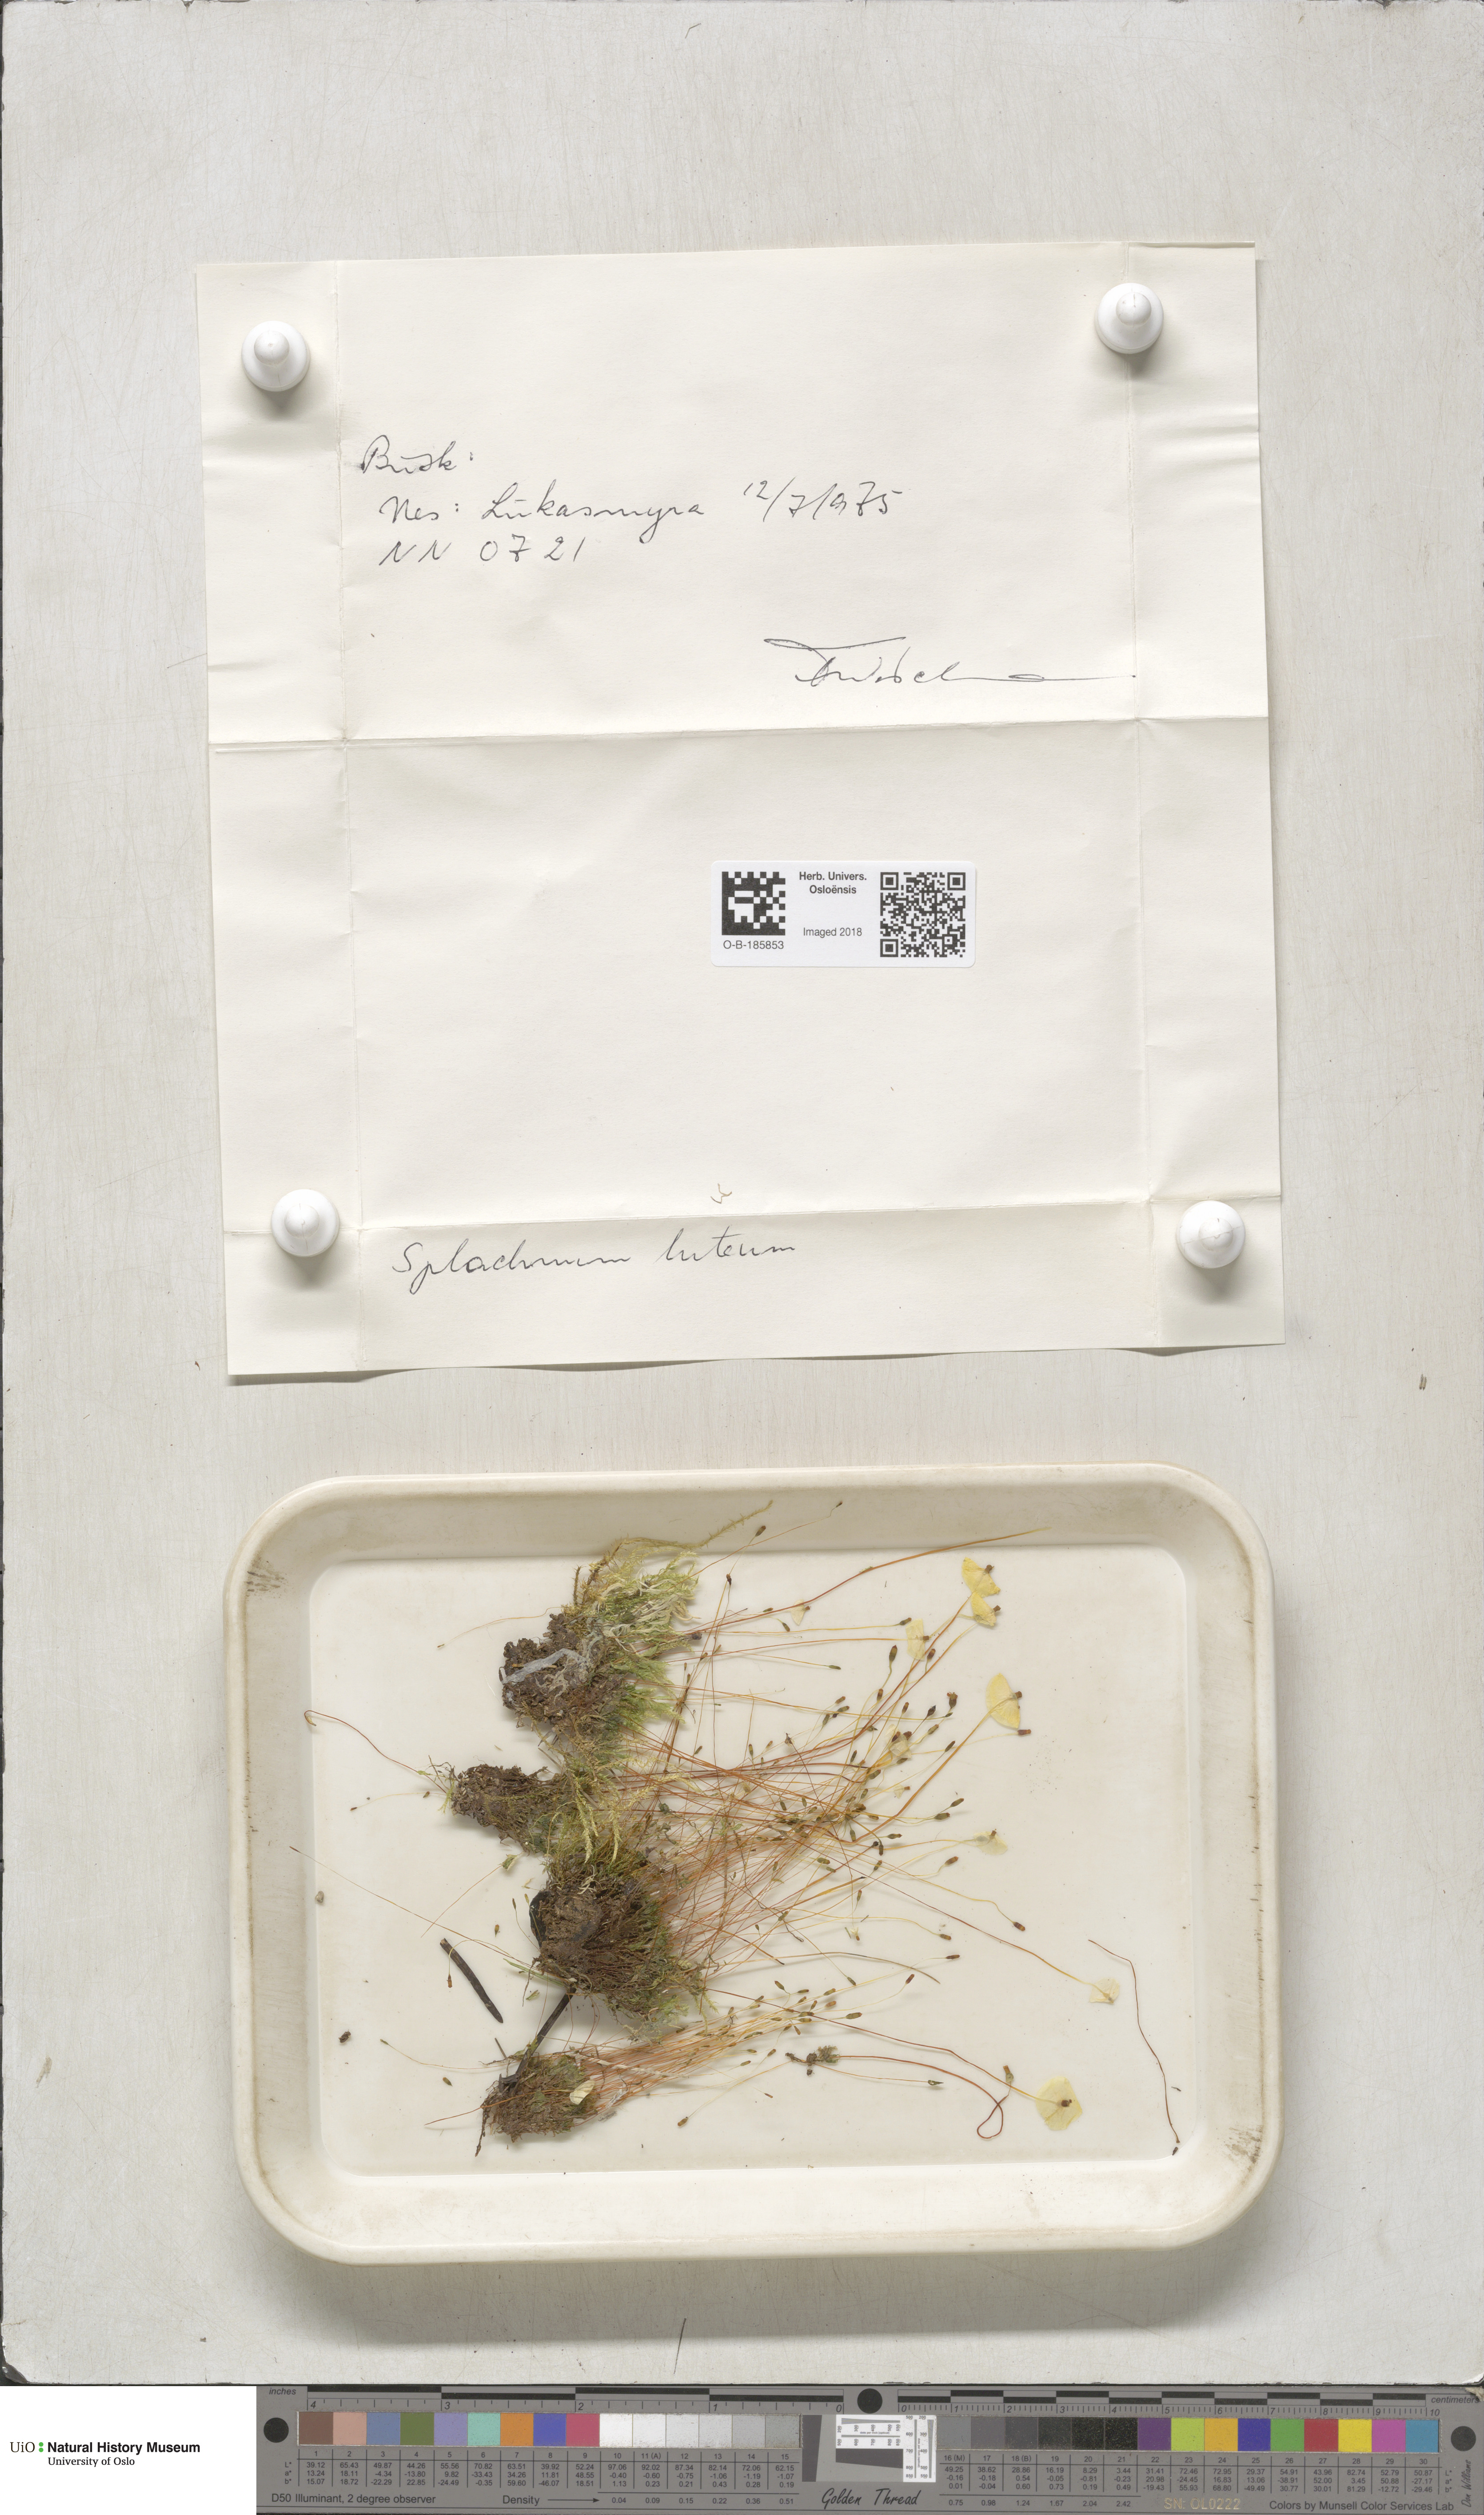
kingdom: Plantae
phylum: Bryophyta
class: Bryopsida
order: Splachnales
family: Splachnaceae
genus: Splachnum
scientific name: Splachnum luteum
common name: Yellow dung moss
